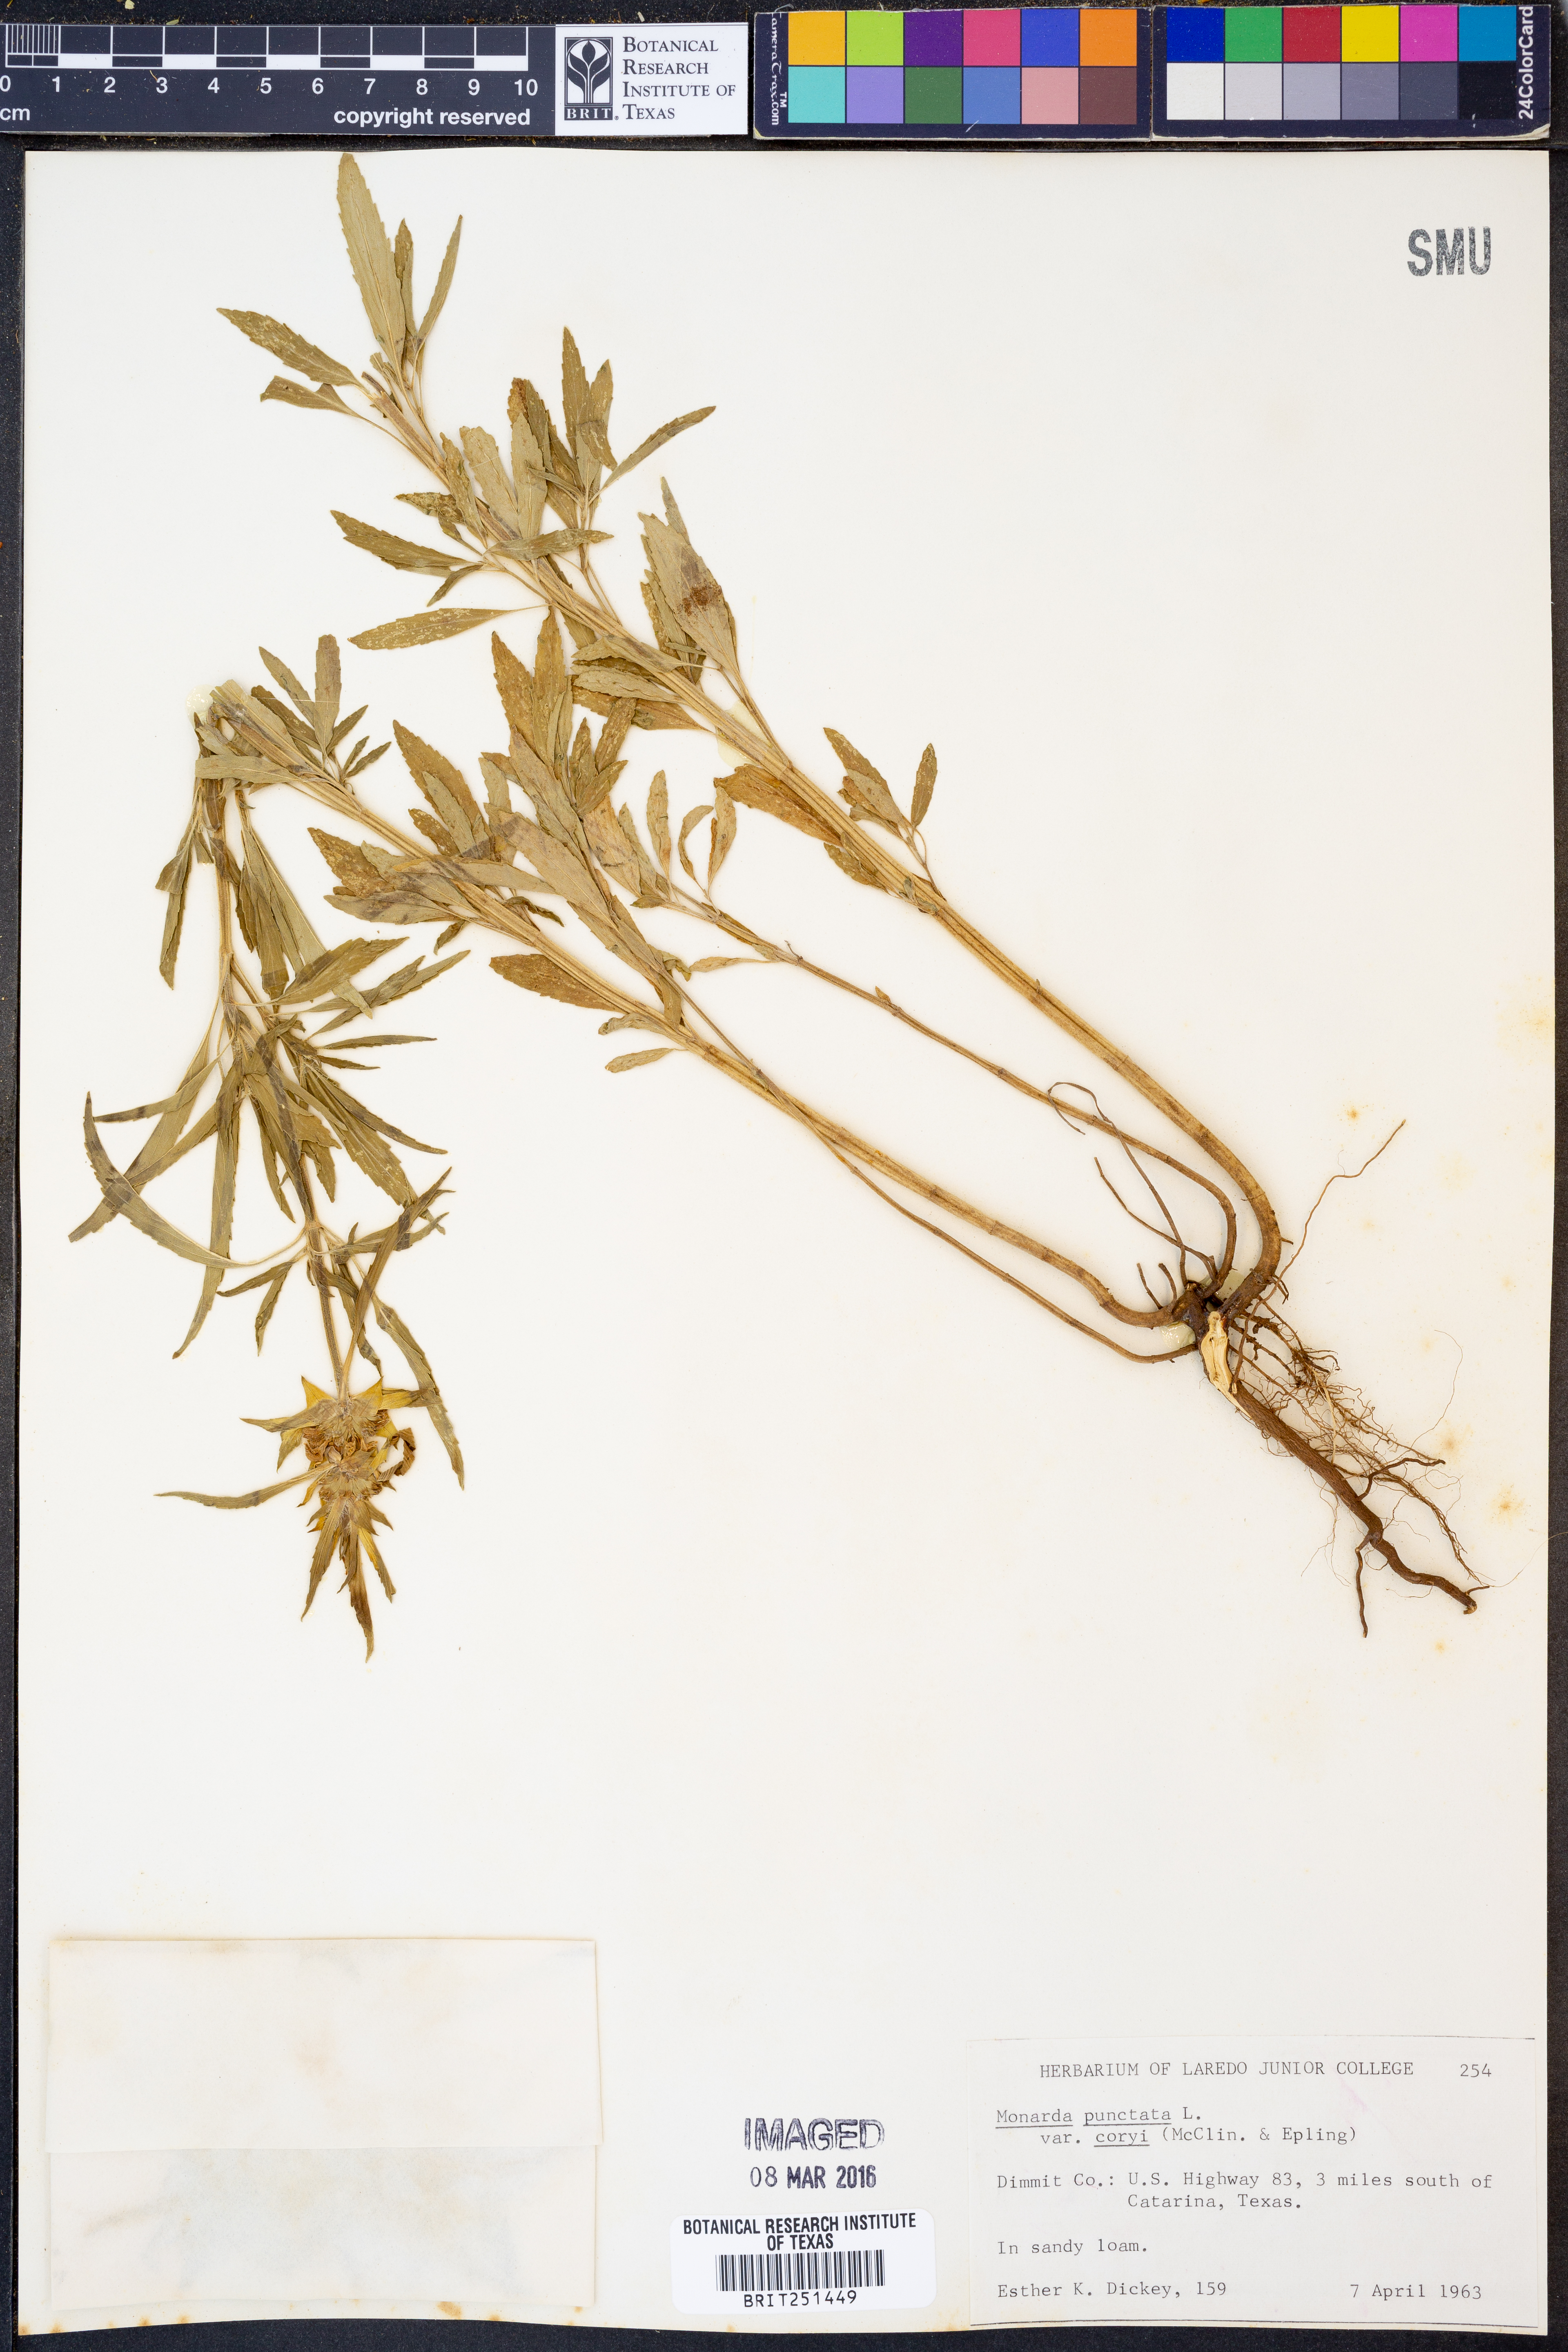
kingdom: Plantae
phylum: Tracheophyta
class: Magnoliopsida
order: Lamiales
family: Lamiaceae
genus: Monarda
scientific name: Monarda punctata
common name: Dotted monarda
